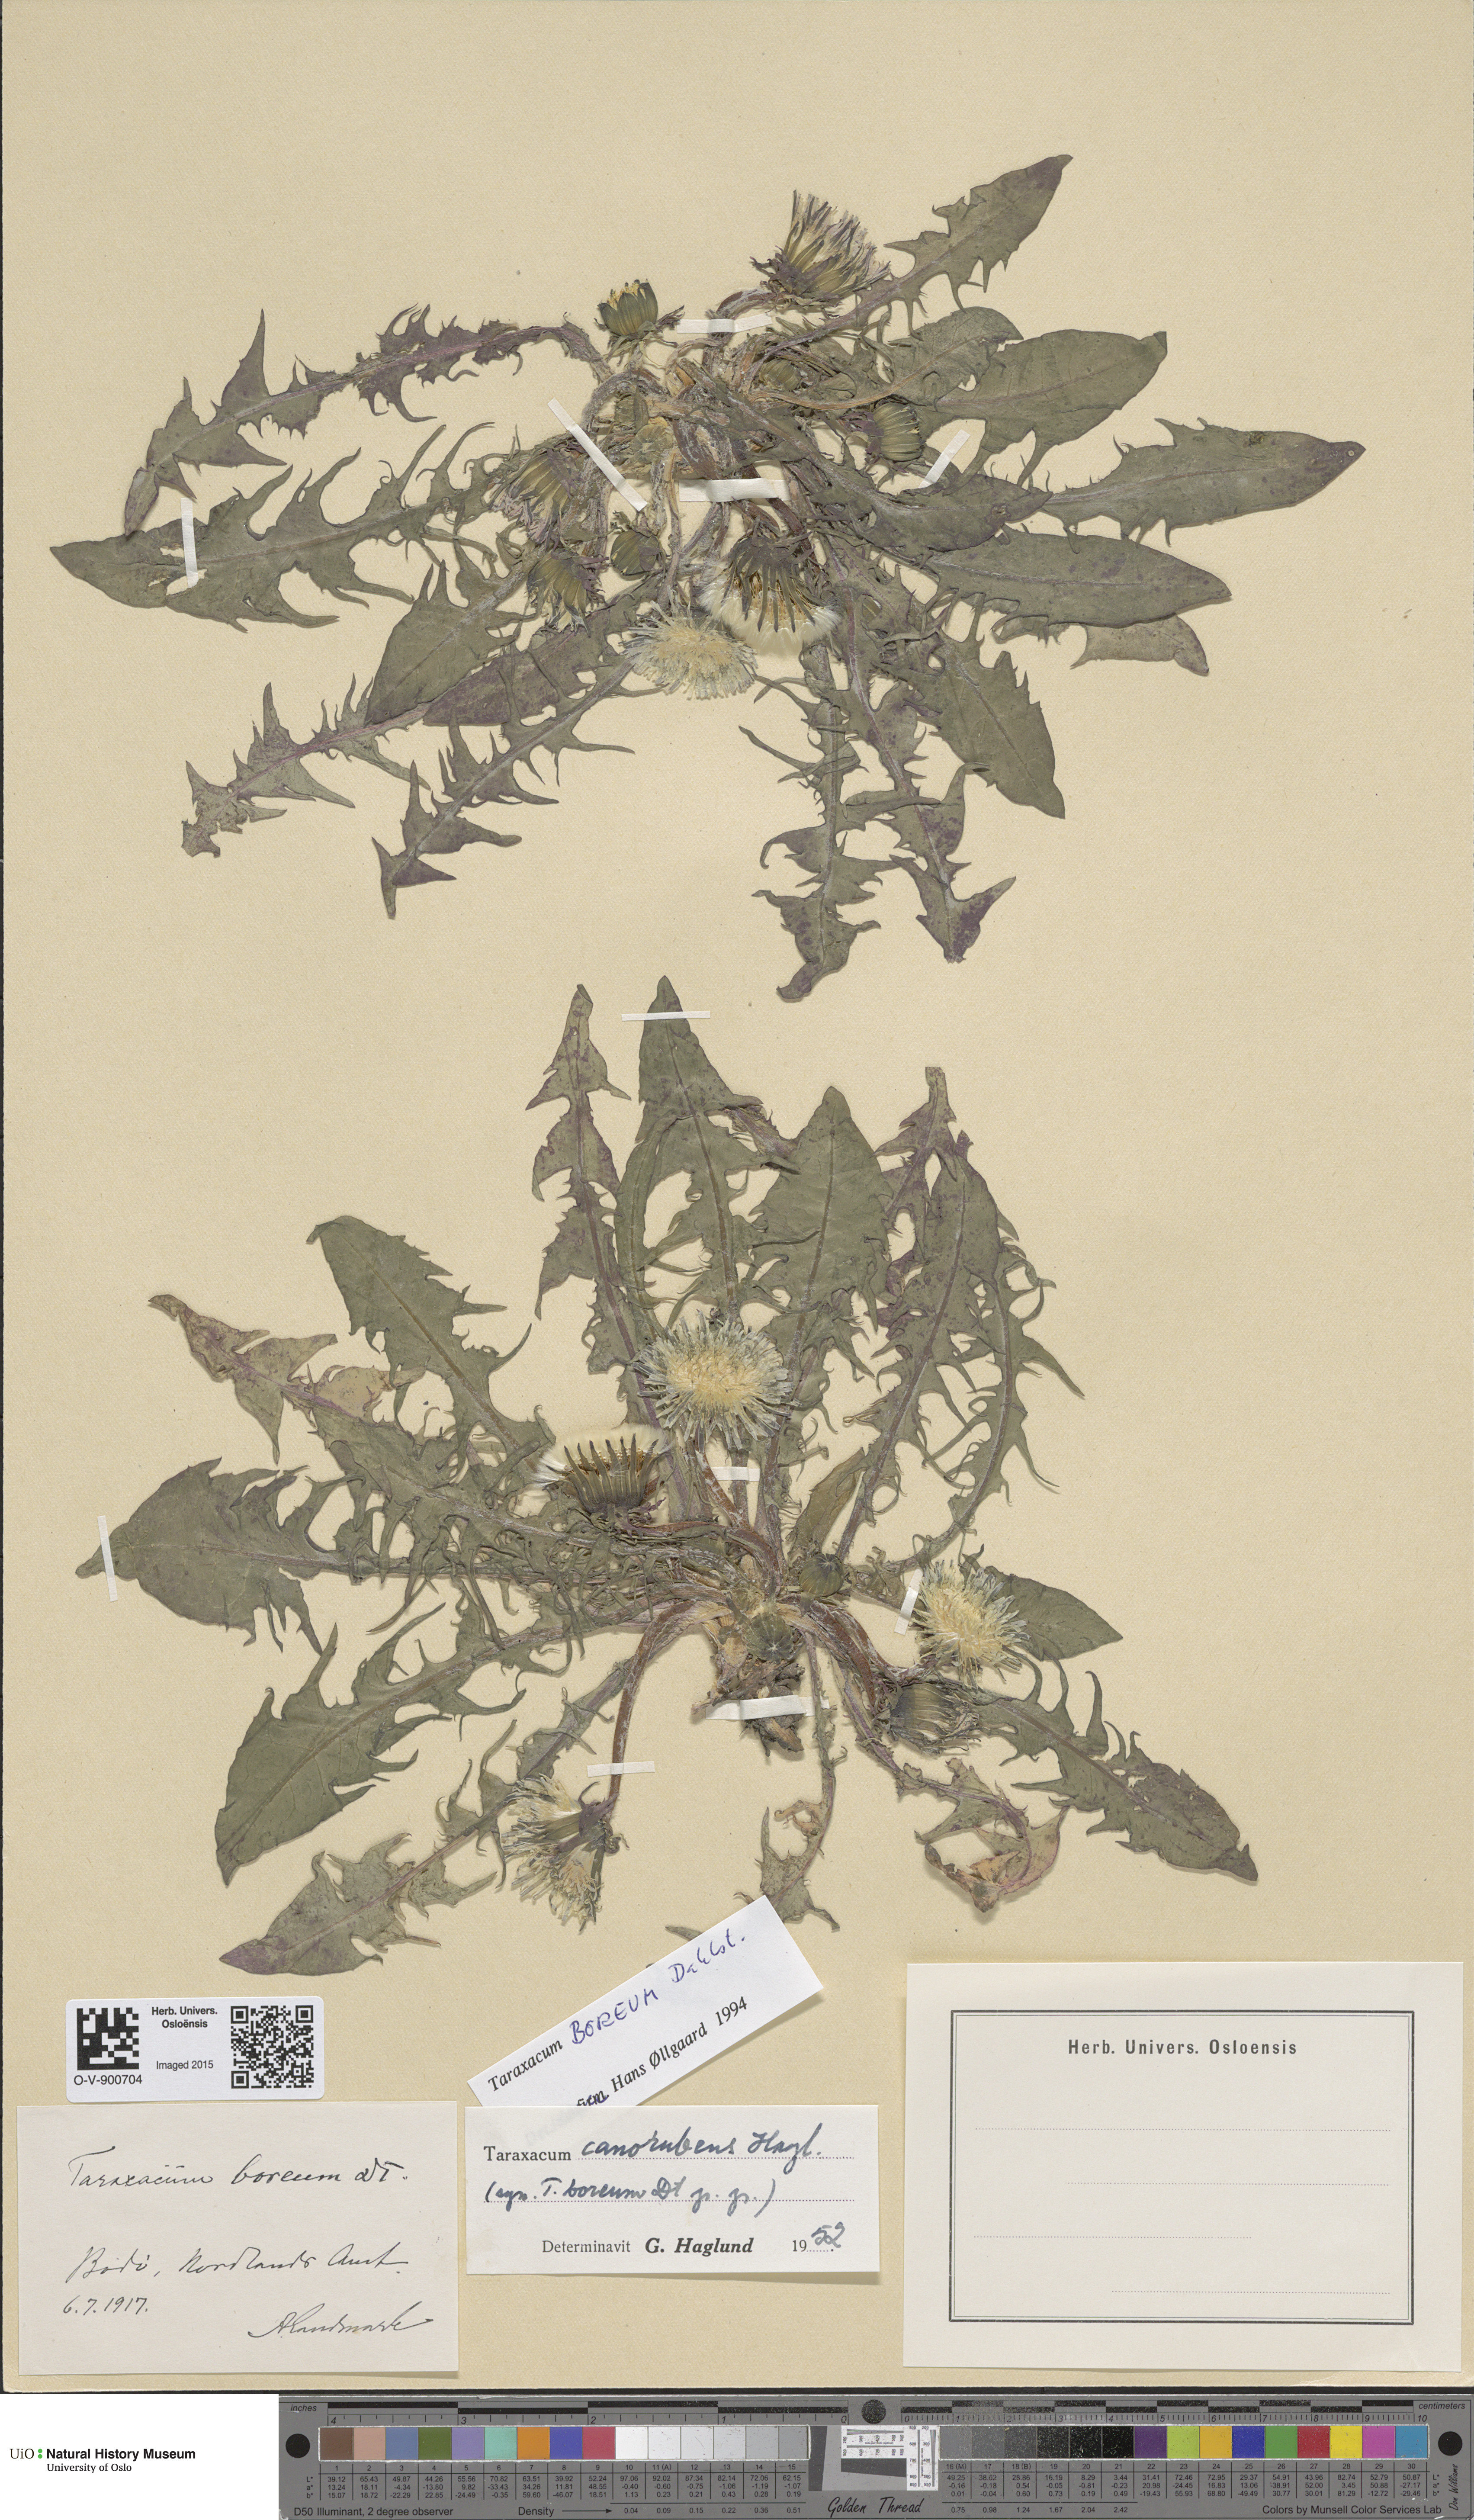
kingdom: Plantae
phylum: Tracheophyta
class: Magnoliopsida
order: Asterales
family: Asteraceae
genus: Taraxacum
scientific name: Taraxacum septentrionale
